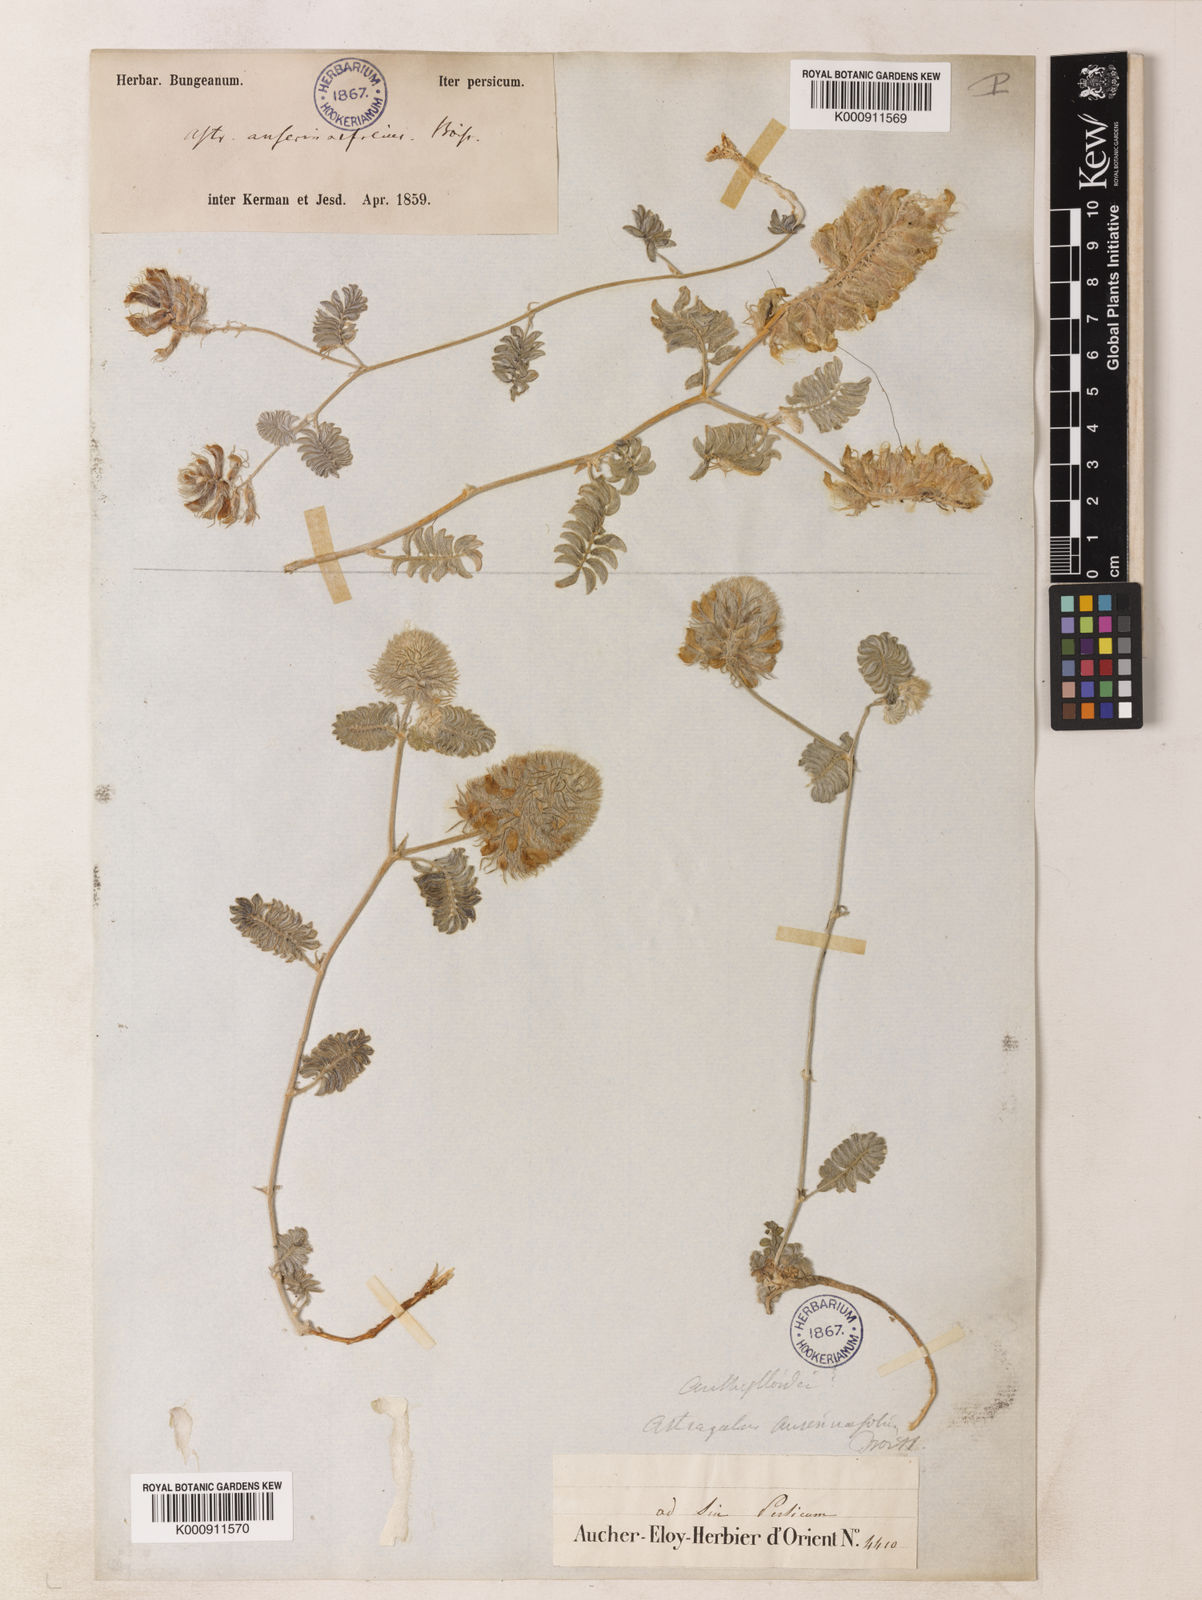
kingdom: Plantae
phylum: Tracheophyta
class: Magnoliopsida
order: Fabales
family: Fabaceae
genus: Astragalus
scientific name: Astragalus anserinifolius
